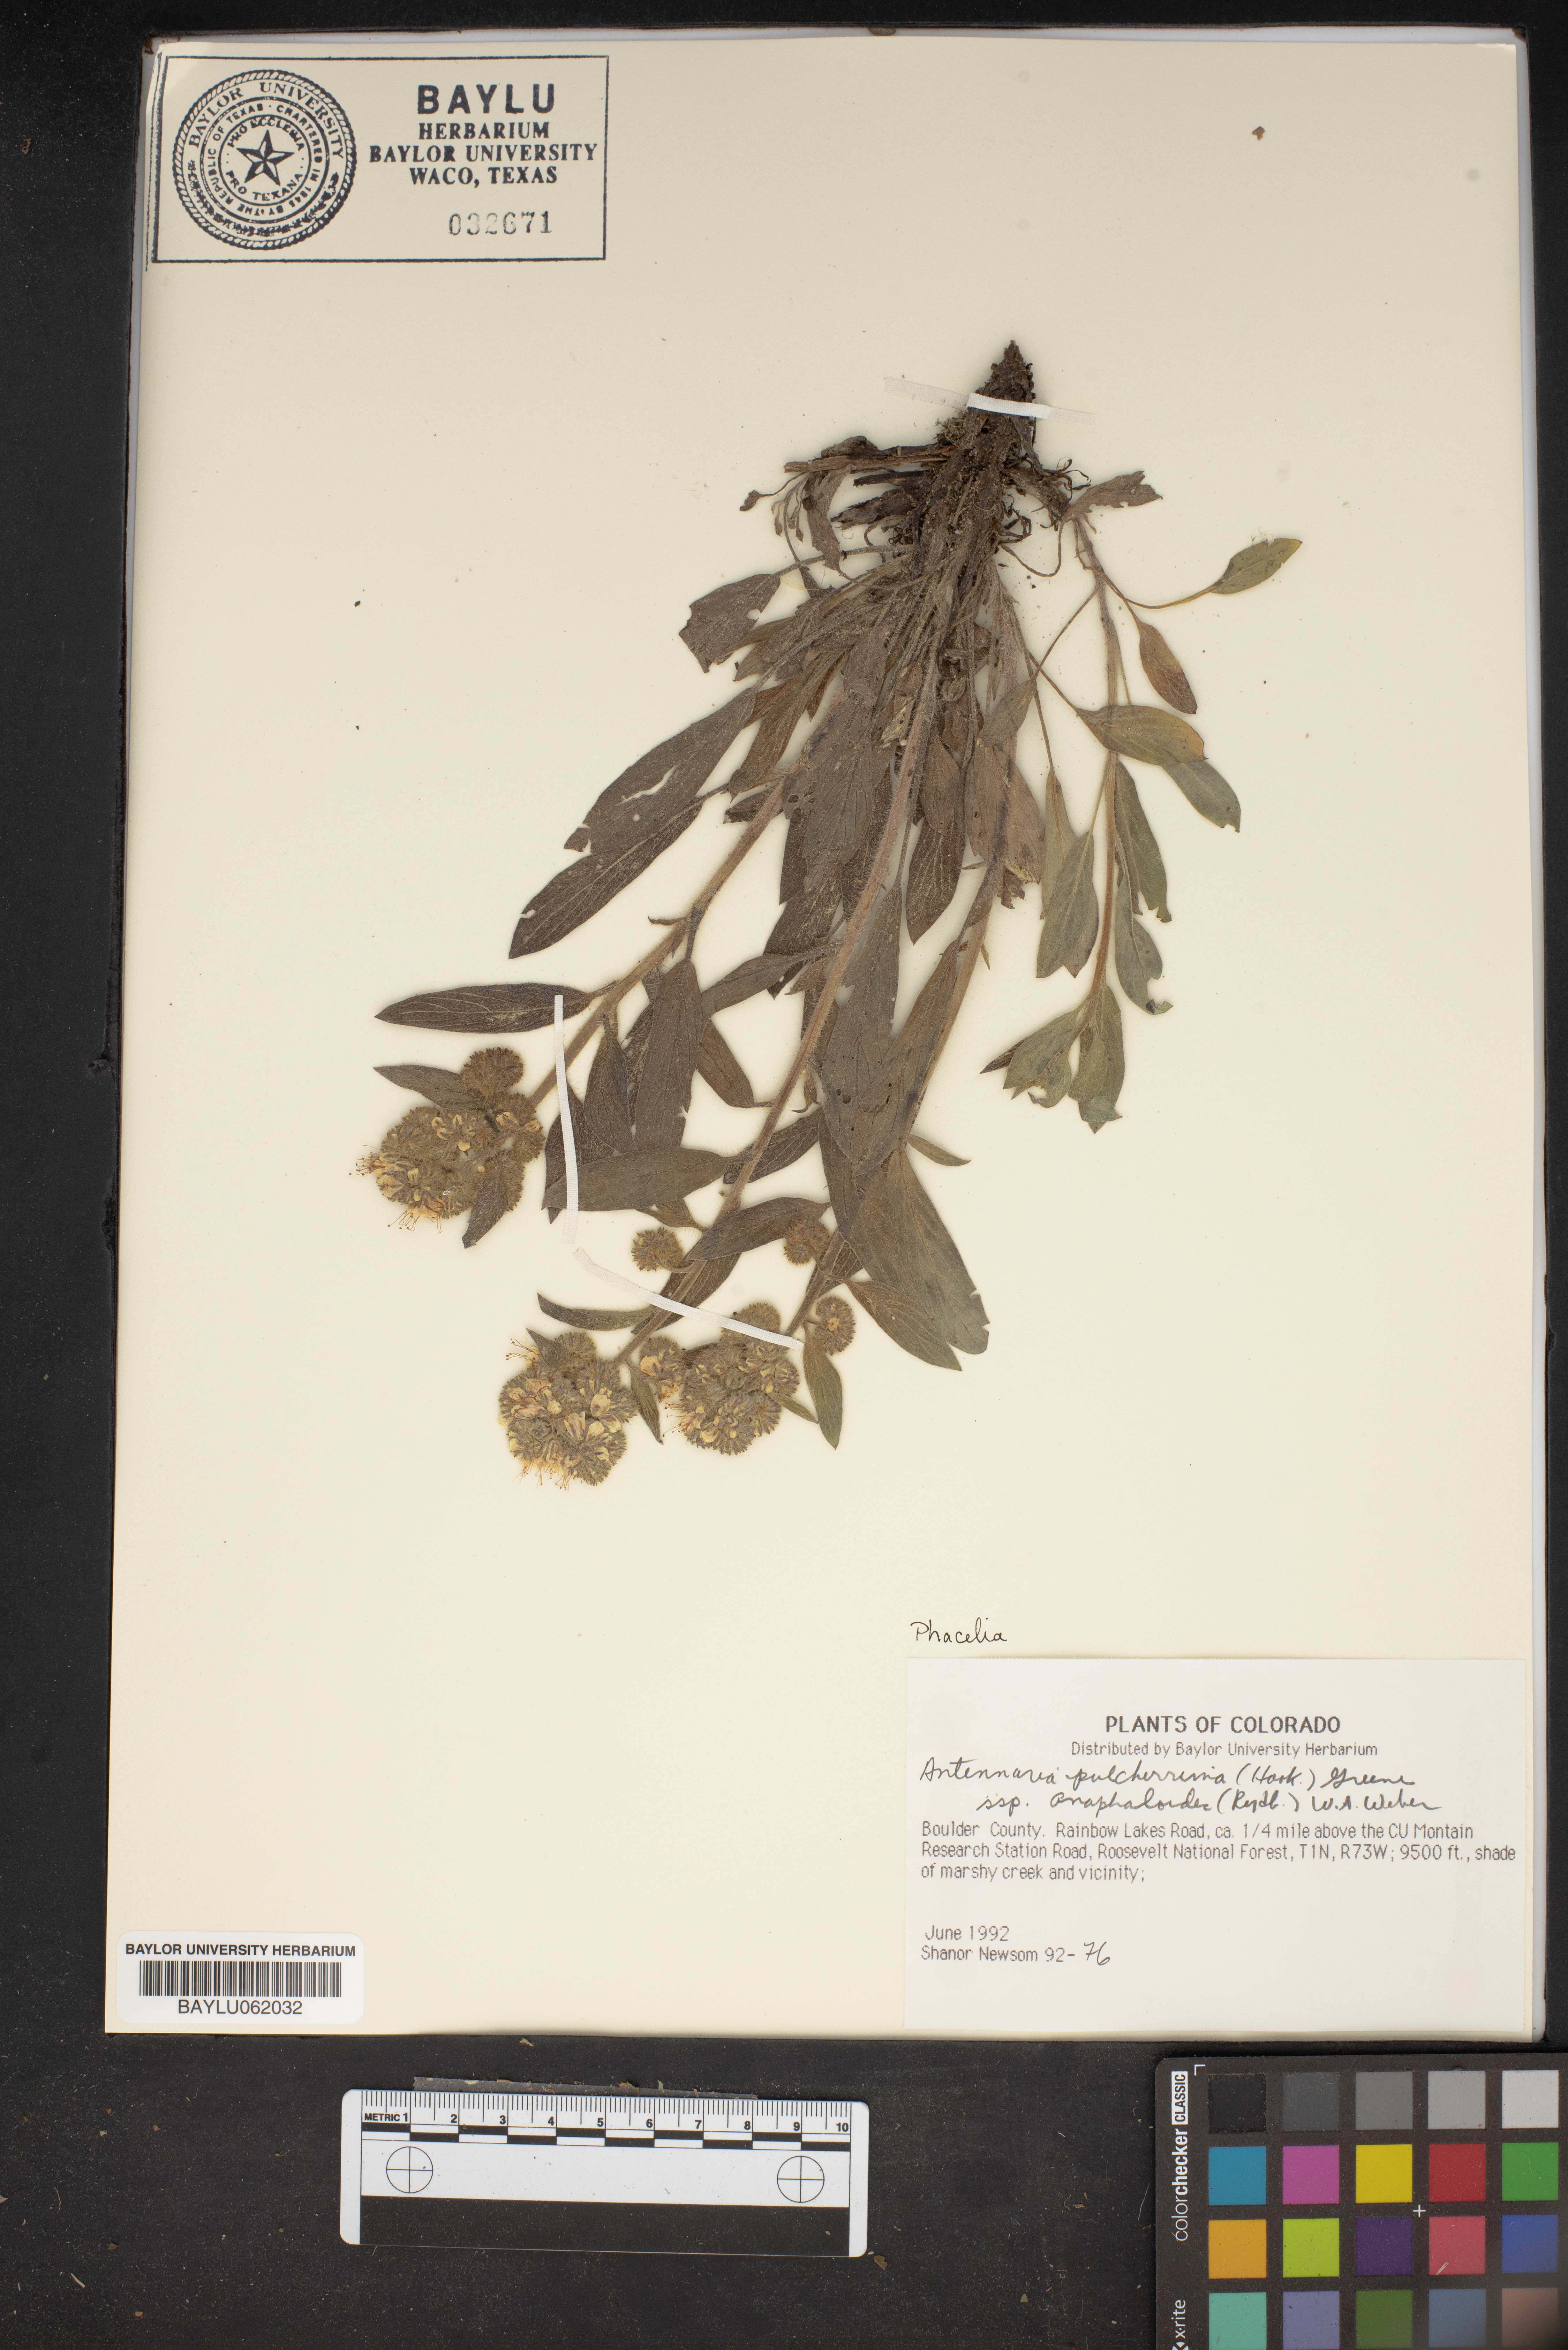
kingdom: Plantae
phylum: Tracheophyta
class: Magnoliopsida
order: Asterales
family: Asteraceae
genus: Antennaria
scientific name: Antennaria pulcherrima
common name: Handsome pussytoes
